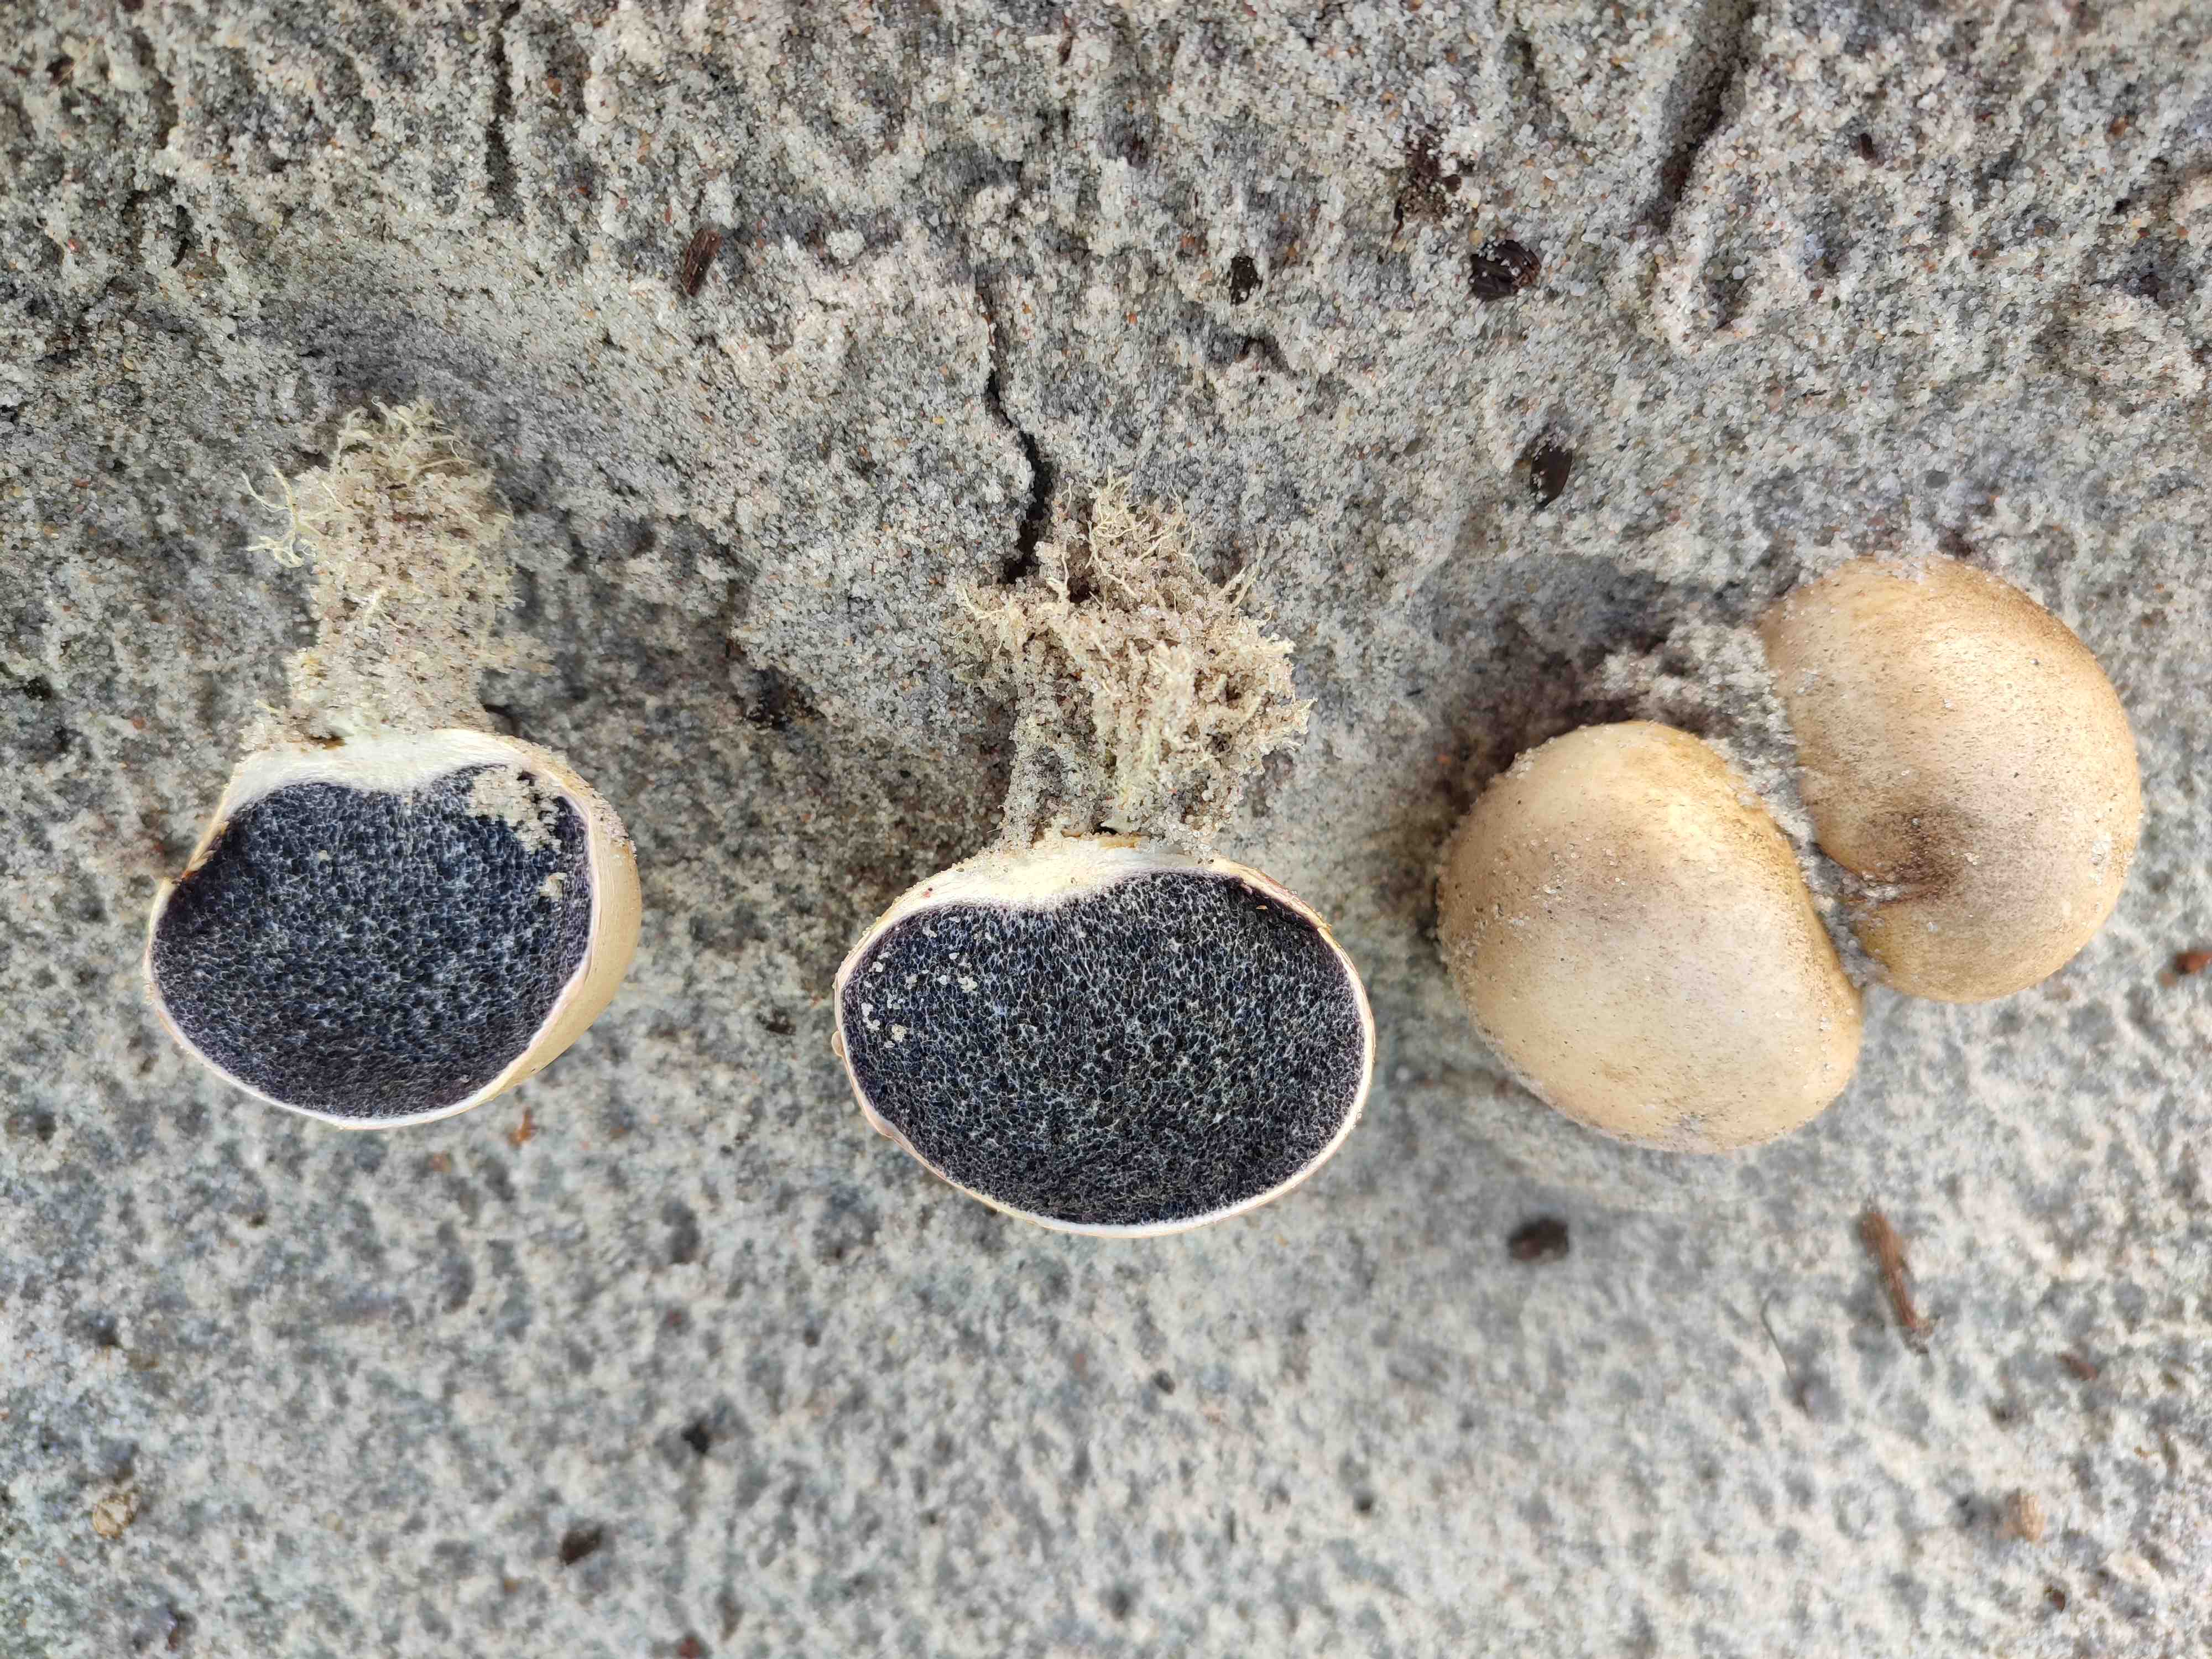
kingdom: Fungi
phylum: Basidiomycota
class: Agaricomycetes
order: Boletales
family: Sclerodermataceae
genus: Scleroderma
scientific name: Scleroderma bovista
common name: bovist-bruskbold
